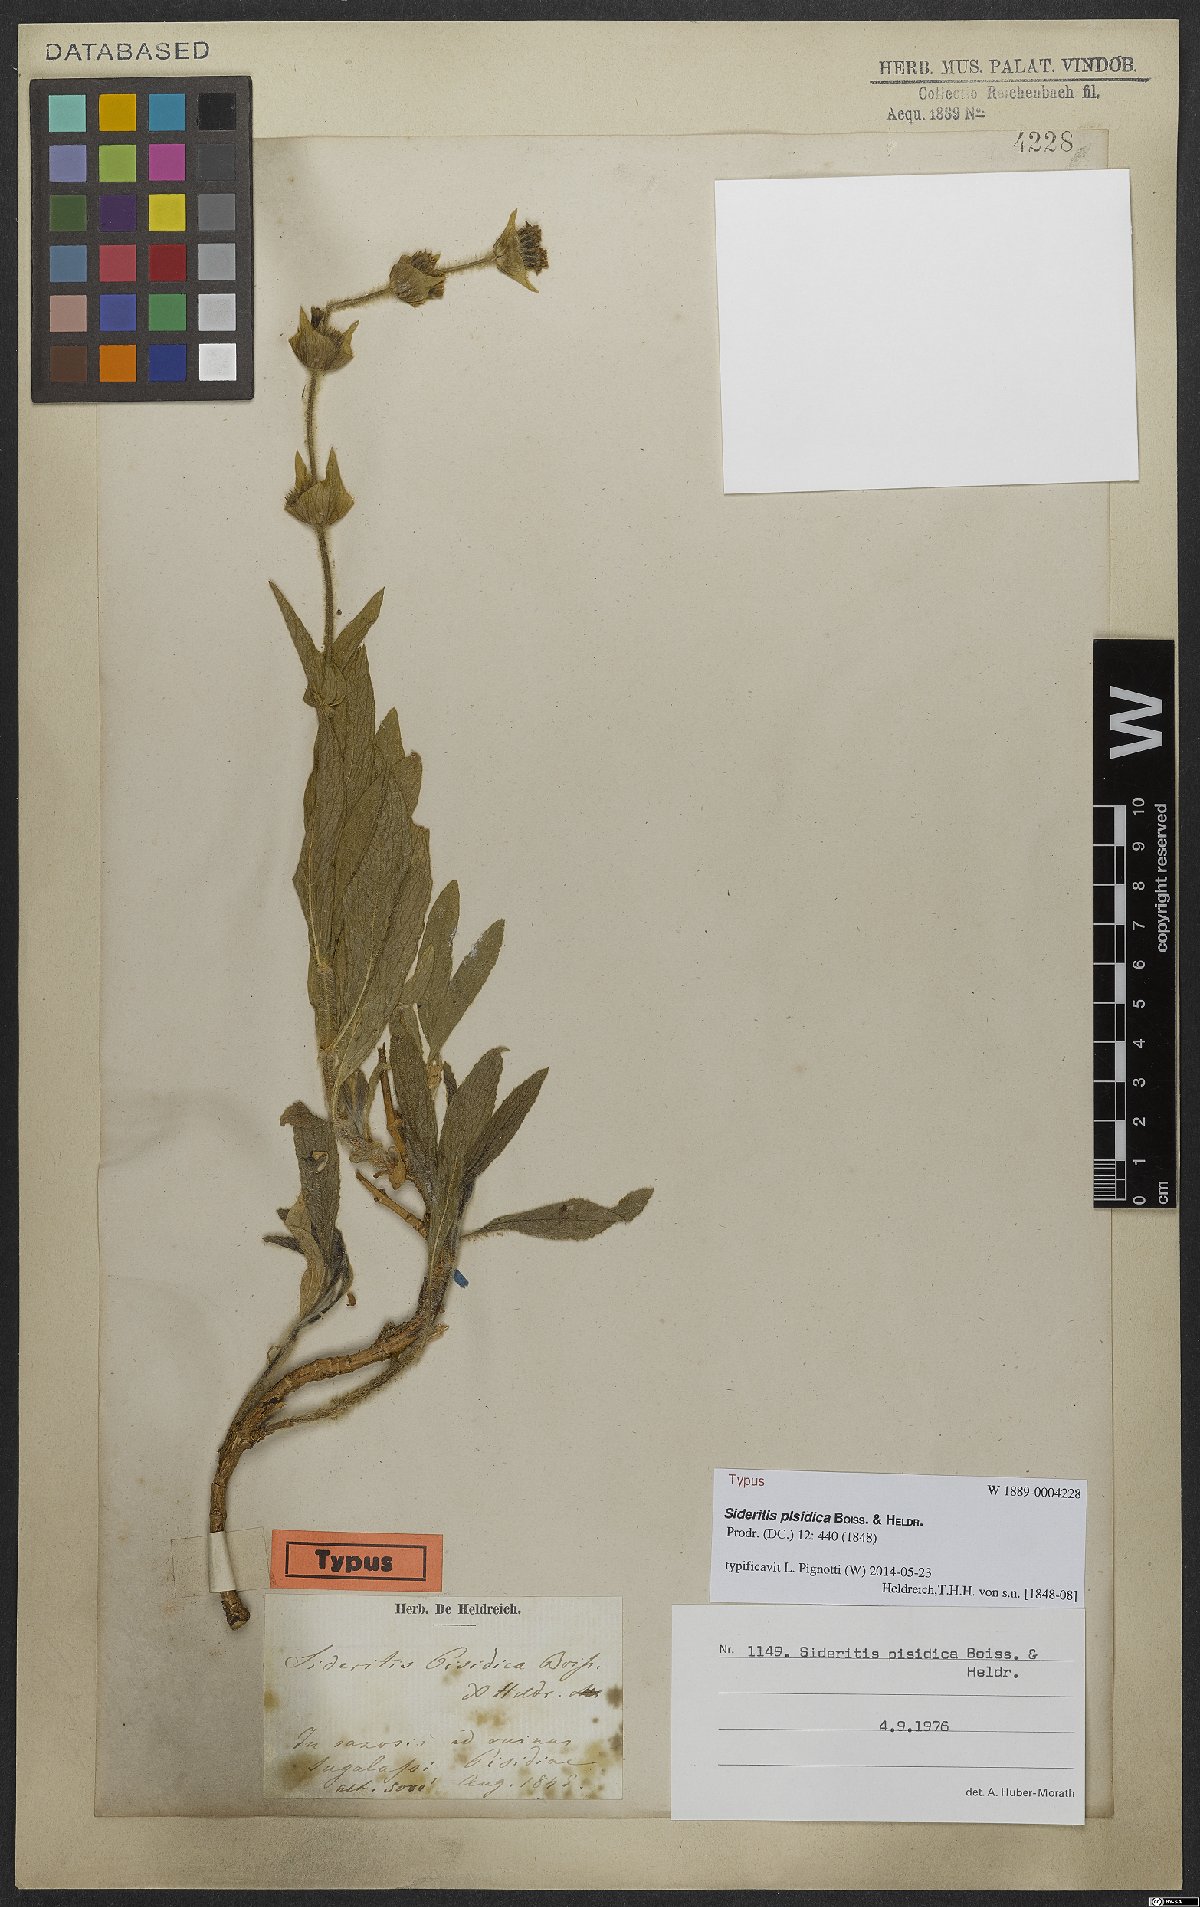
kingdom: Plantae
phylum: Tracheophyta
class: Magnoliopsida
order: Lamiales
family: Lamiaceae
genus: Sideritis
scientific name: Sideritis pisidica
